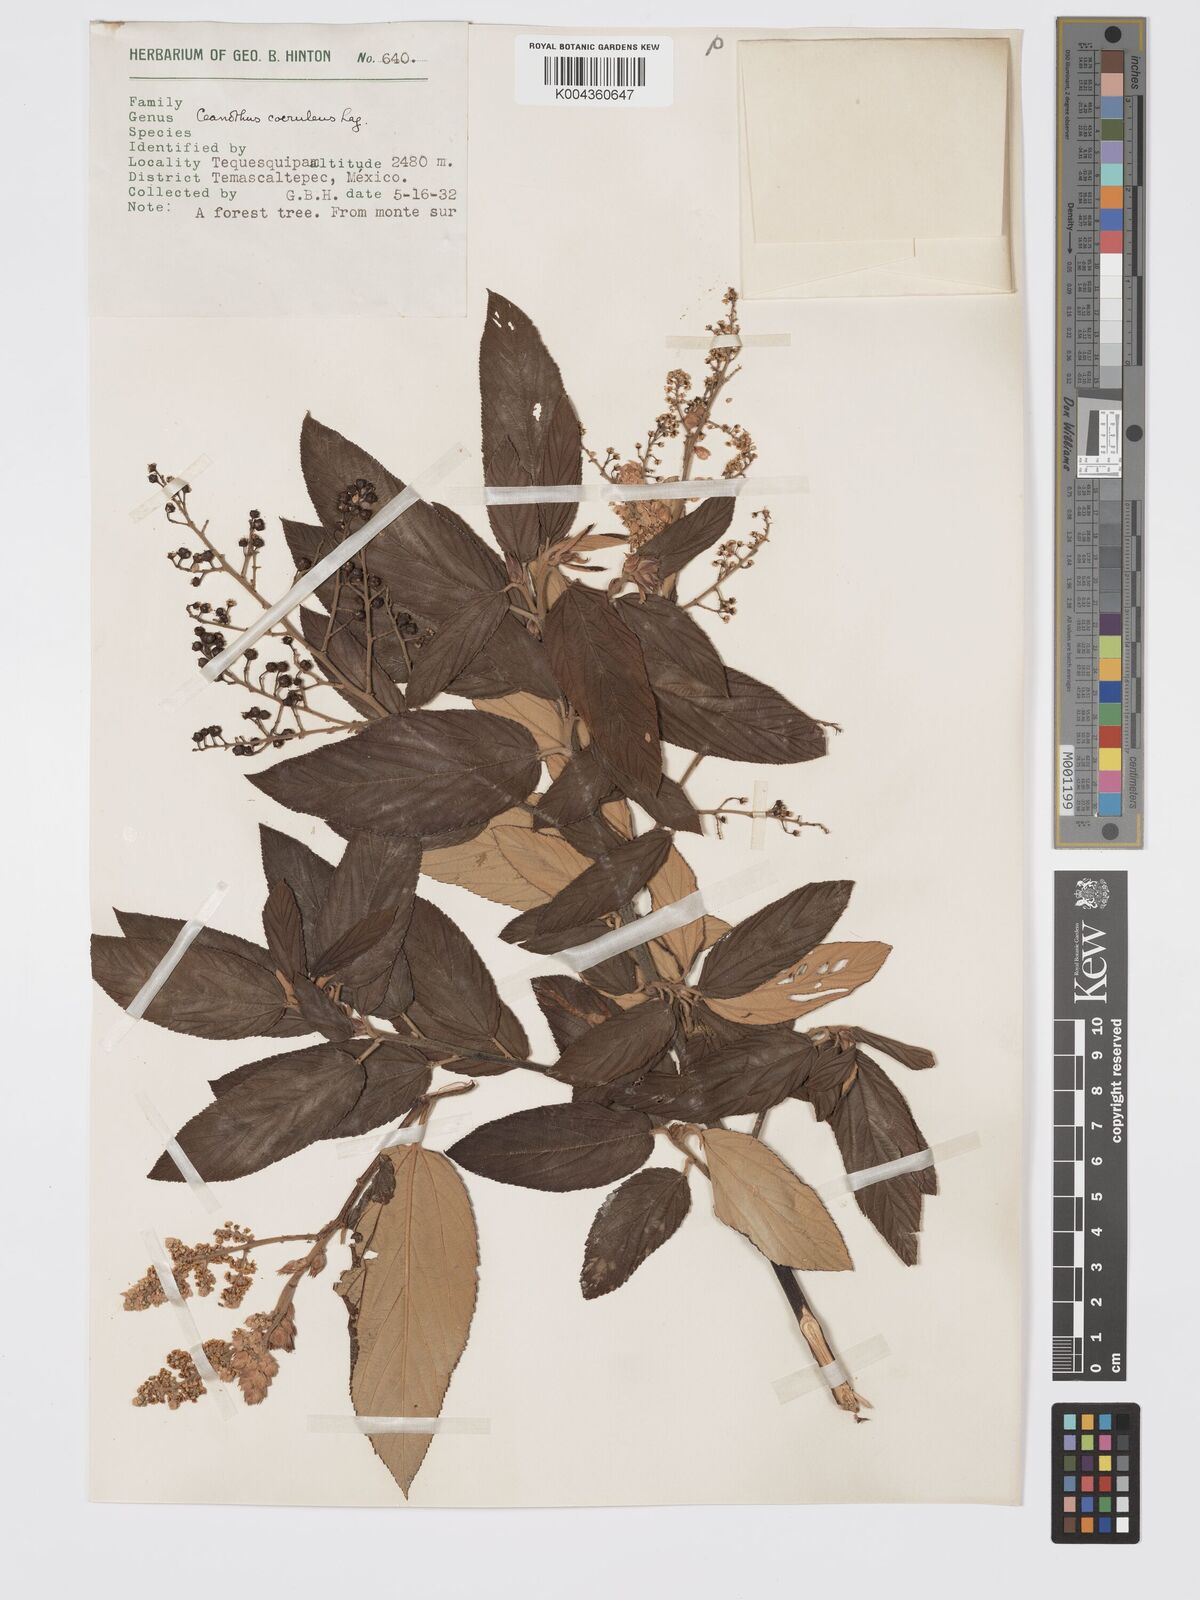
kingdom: Plantae
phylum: Tracheophyta
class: Magnoliopsida
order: Rosales
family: Rhamnaceae
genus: Ceanothus
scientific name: Ceanothus caeruleus
